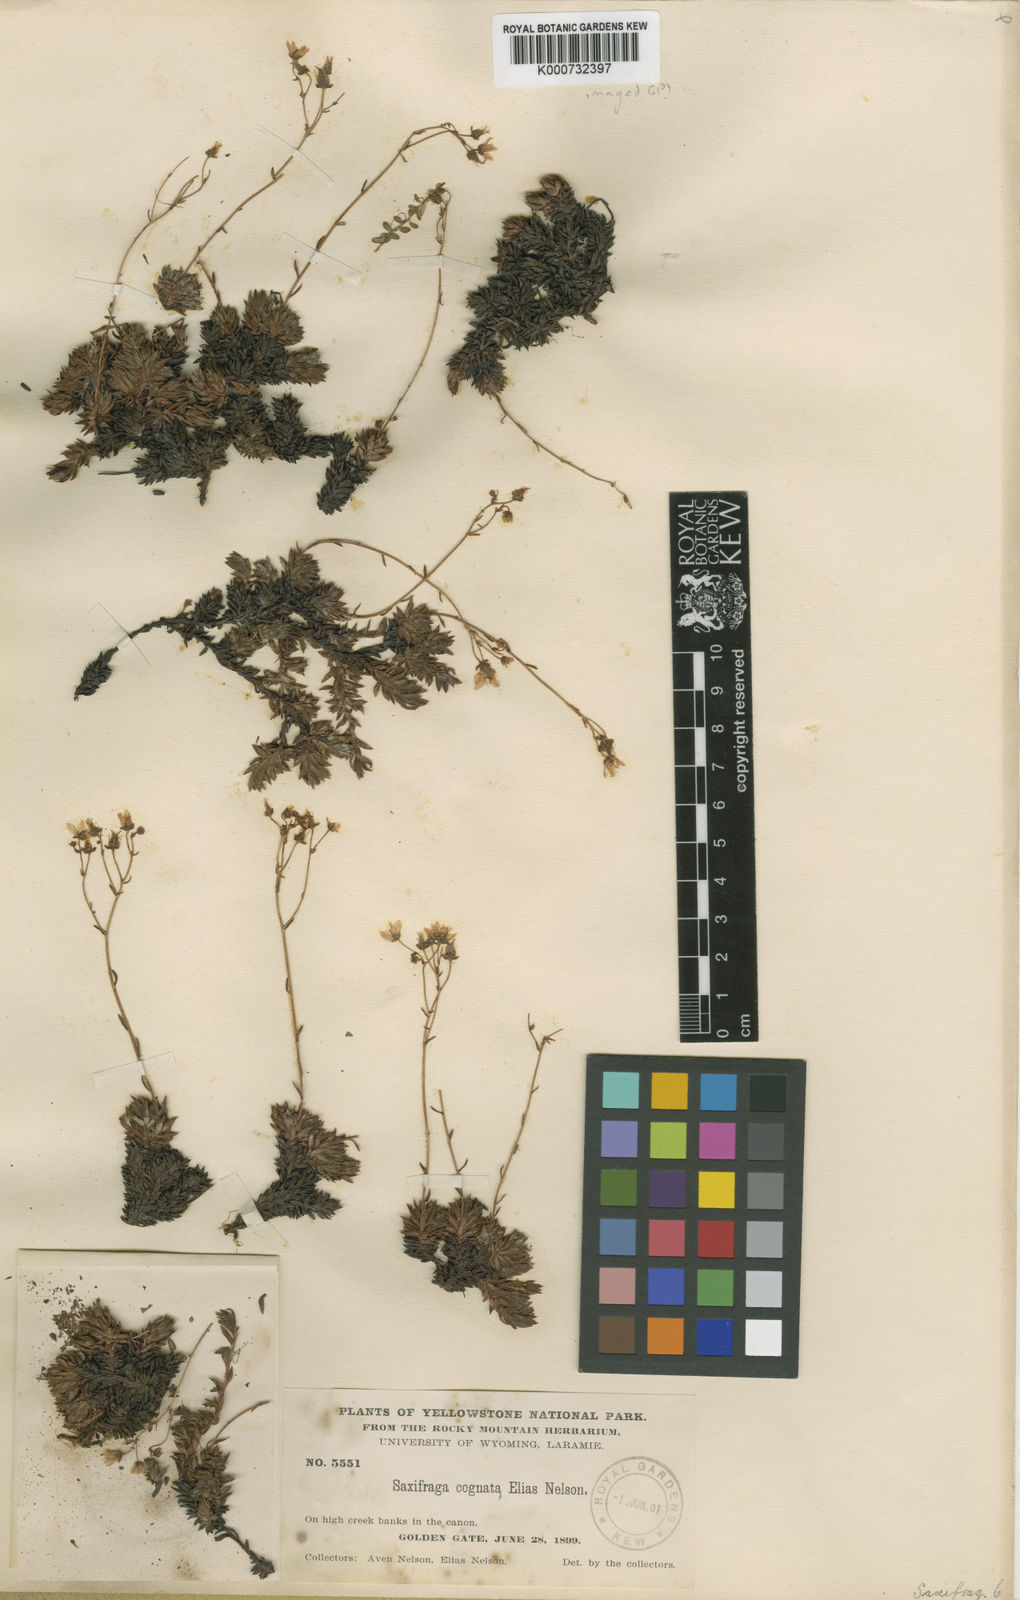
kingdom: Plantae
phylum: Tracheophyta
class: Magnoliopsida
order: Saxifragales
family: Saxifragaceae
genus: Saxifraga
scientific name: Saxifraga bronchialis
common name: Matted saxifrage
